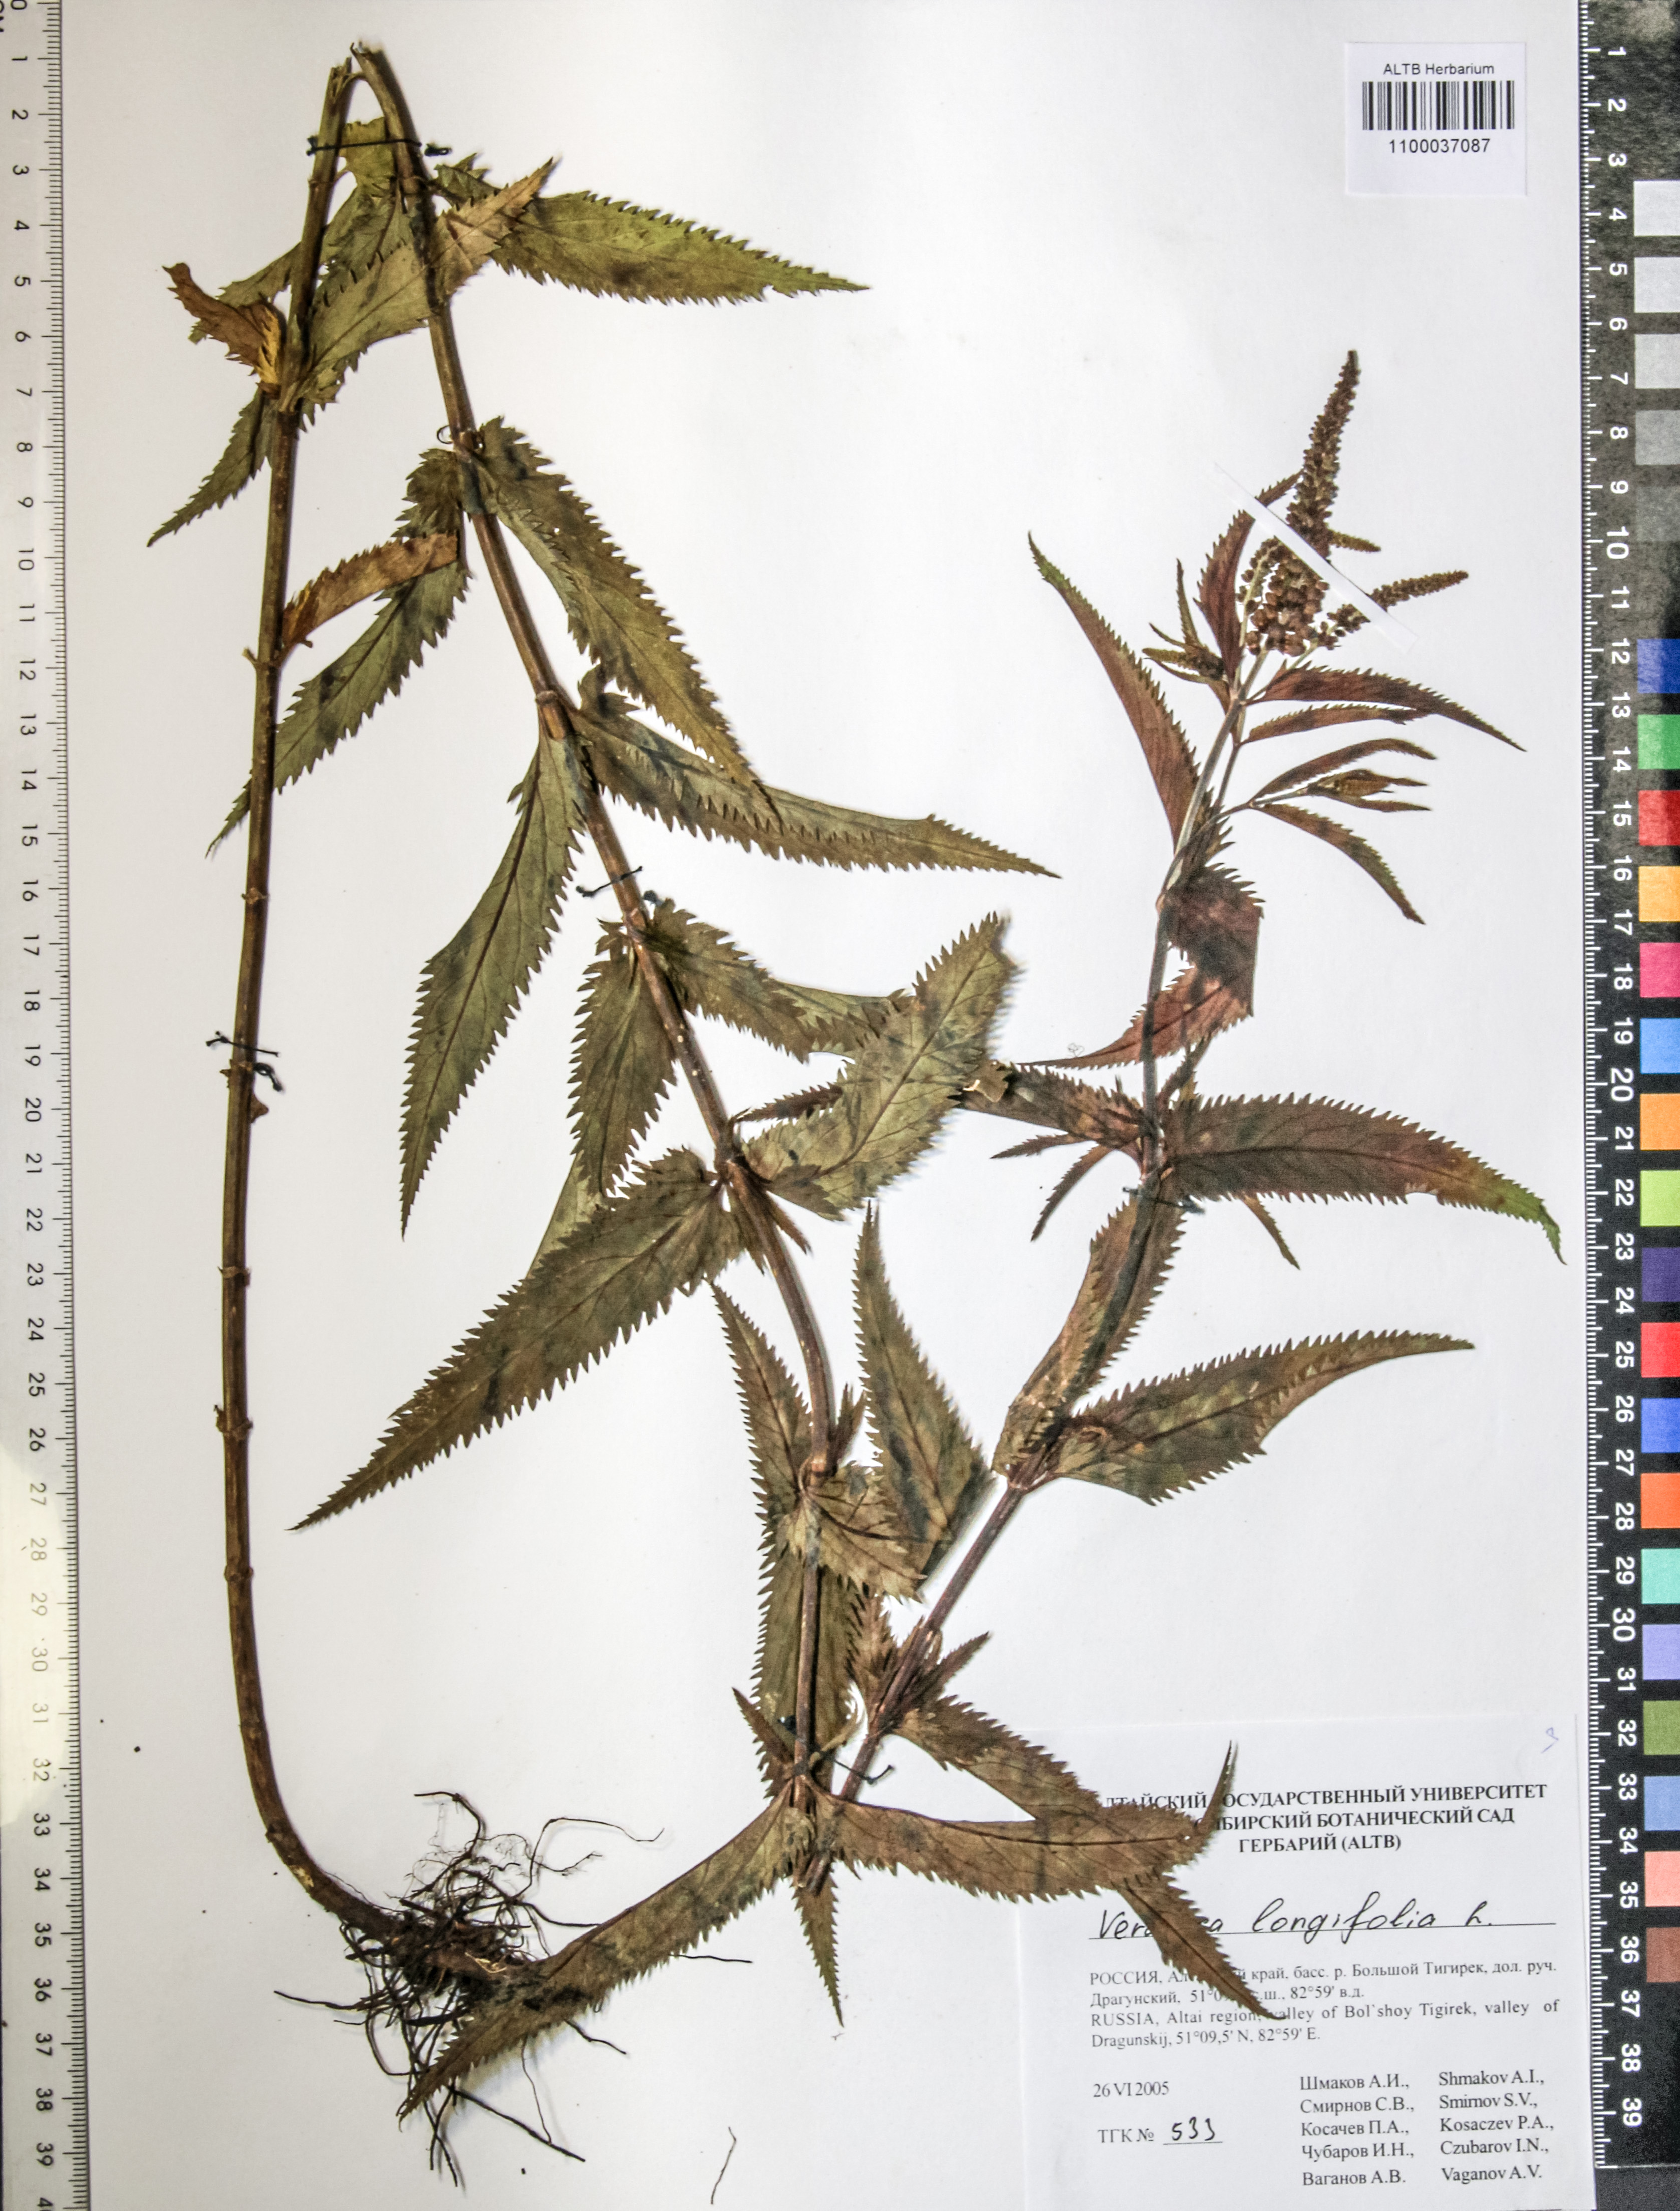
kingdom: Plantae
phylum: Tracheophyta
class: Magnoliopsida
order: Lamiales
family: Plantaginaceae
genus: Veronica
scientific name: Veronica longifolia
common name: Garden speedwell
